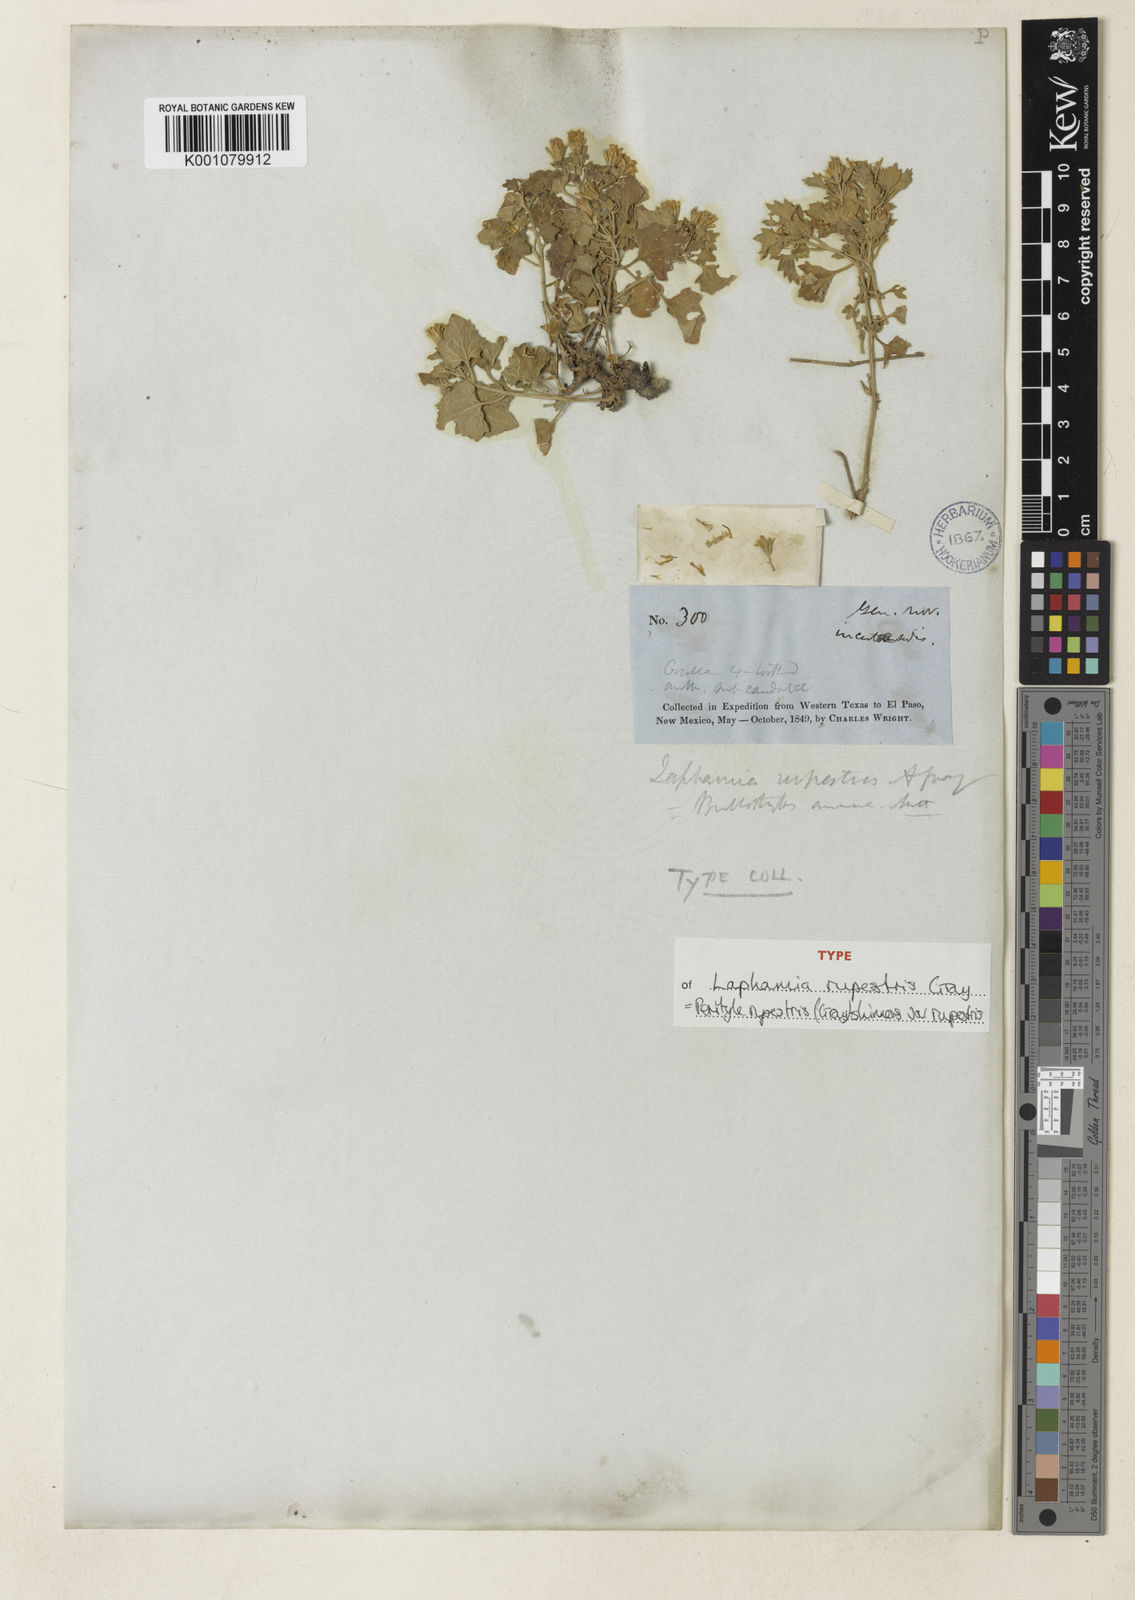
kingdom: Plantae
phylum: Tracheophyta
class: Magnoliopsida
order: Asterales
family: Asteraceae
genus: Laphamia
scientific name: Laphamia rupestris
